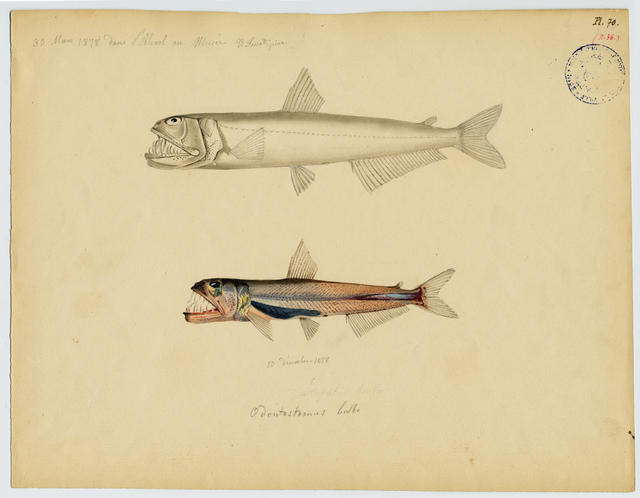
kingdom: Animalia
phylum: Chordata
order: Aulopiformes
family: Evermannellidae
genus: Evermannella
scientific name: Evermannella balbo
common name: Balbo sabretooth
